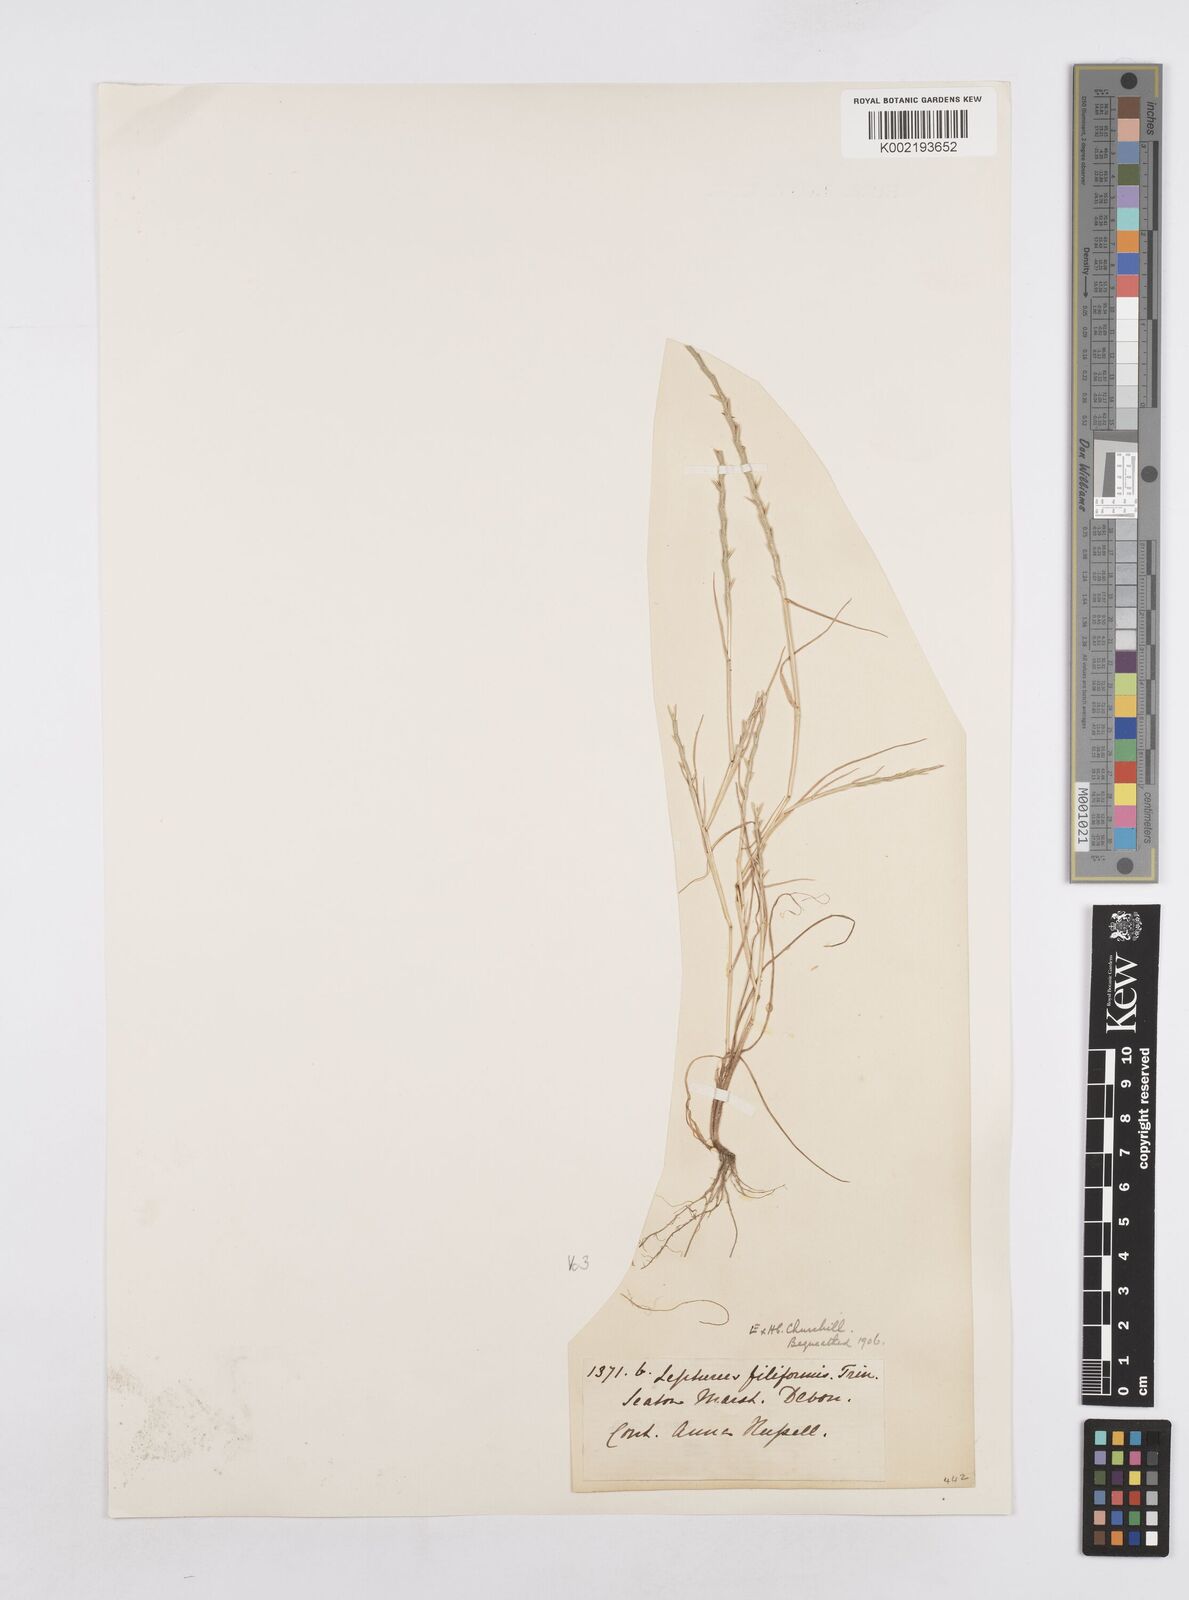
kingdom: Plantae
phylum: Tracheophyta
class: Liliopsida
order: Poales
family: Poaceae
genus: Parapholis
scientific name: Parapholis strigosa
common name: Hard-grass
